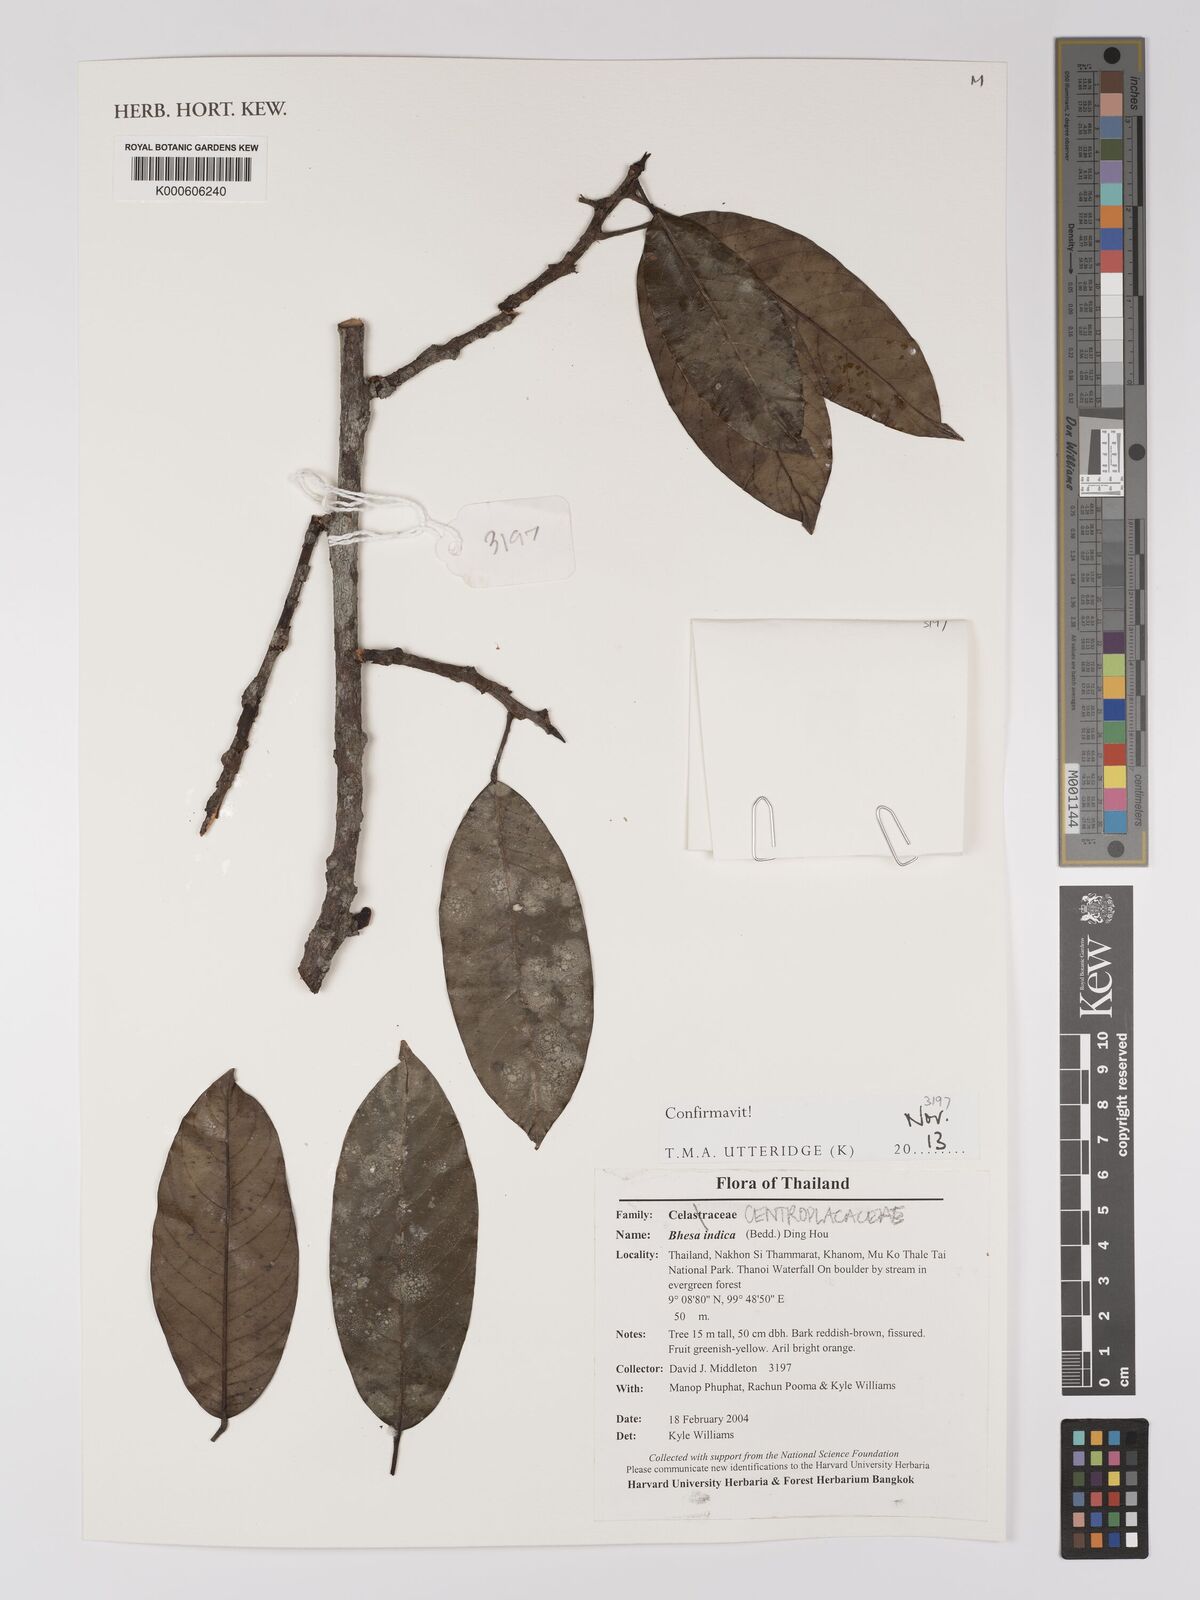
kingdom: Plantae
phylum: Tracheophyta
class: Magnoliopsida
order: Malpighiales
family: Centroplacaceae
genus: Bhesa
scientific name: Bhesa indica
